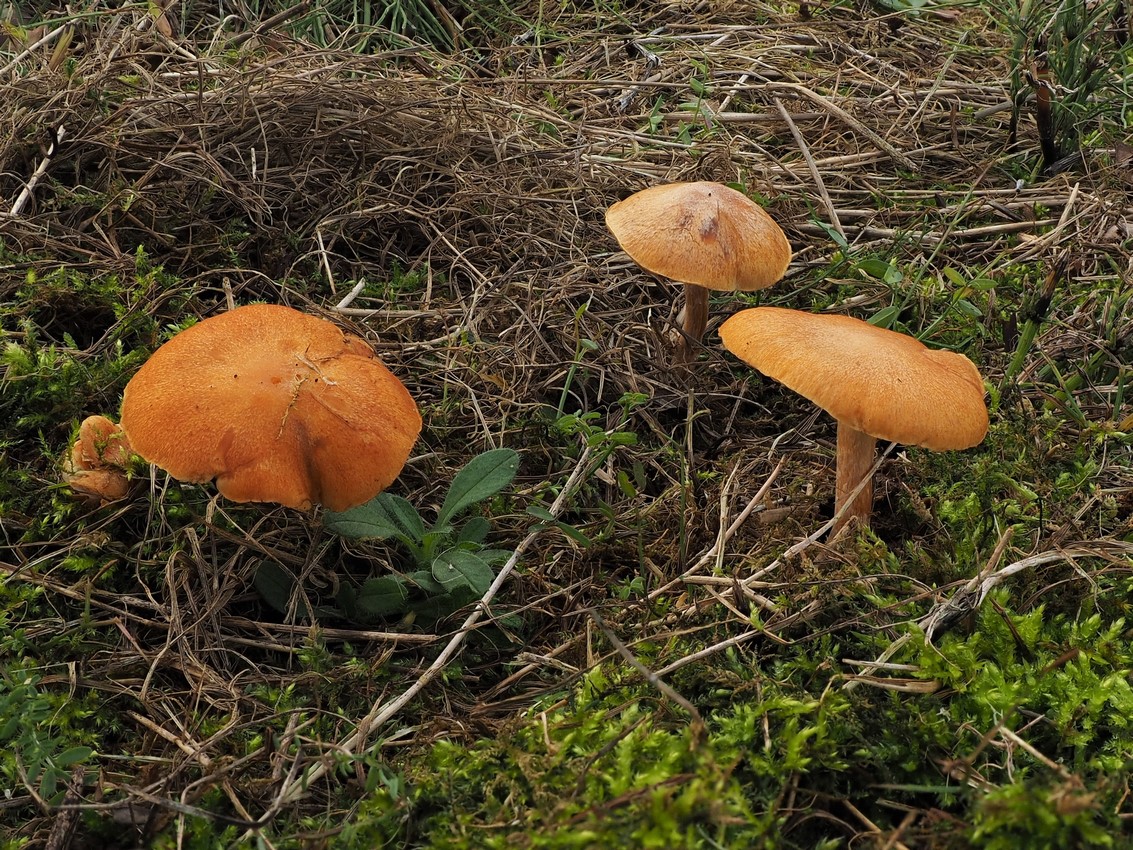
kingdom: Fungi
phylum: Basidiomycota
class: Agaricomycetes
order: Agaricales
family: Hymenogastraceae
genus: Gymnopilus
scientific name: Gymnopilus penetrans
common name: plettet flammehat
